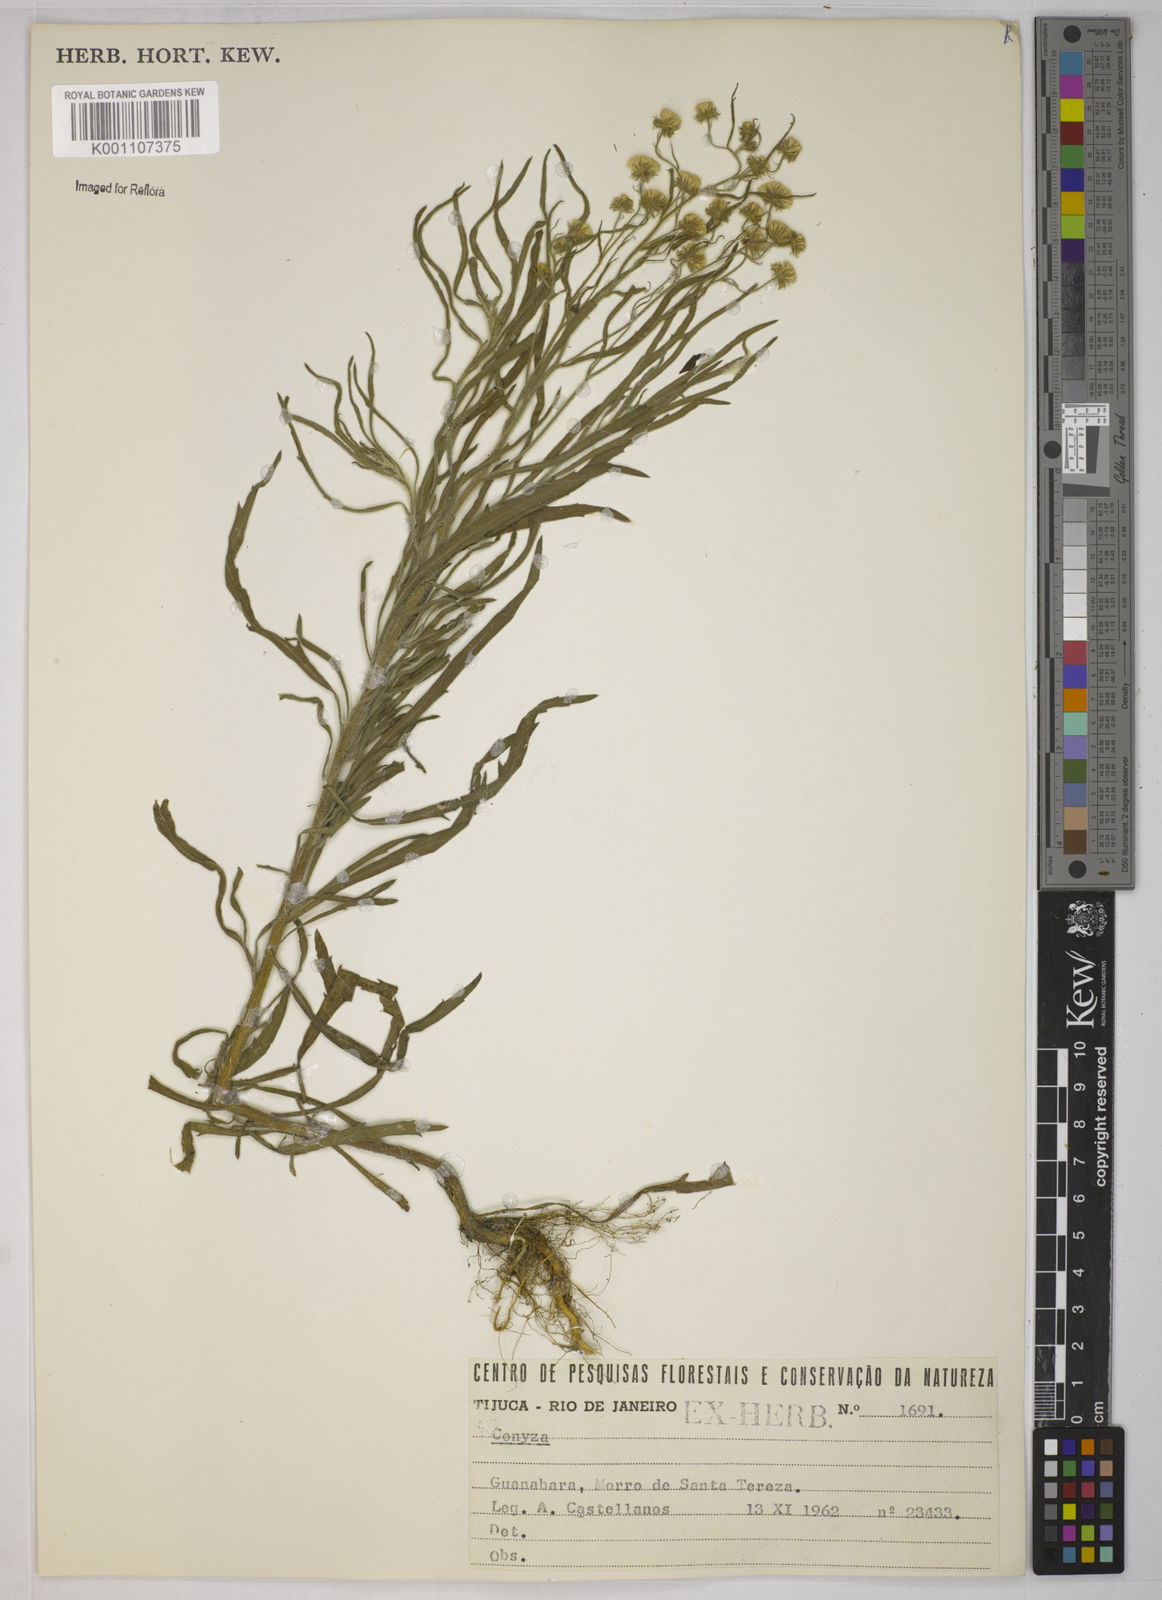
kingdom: Plantae
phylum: Tracheophyta
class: Magnoliopsida
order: Asterales
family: Asteraceae
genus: Erigeron
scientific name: Erigeron sumatrensis
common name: Daisy
